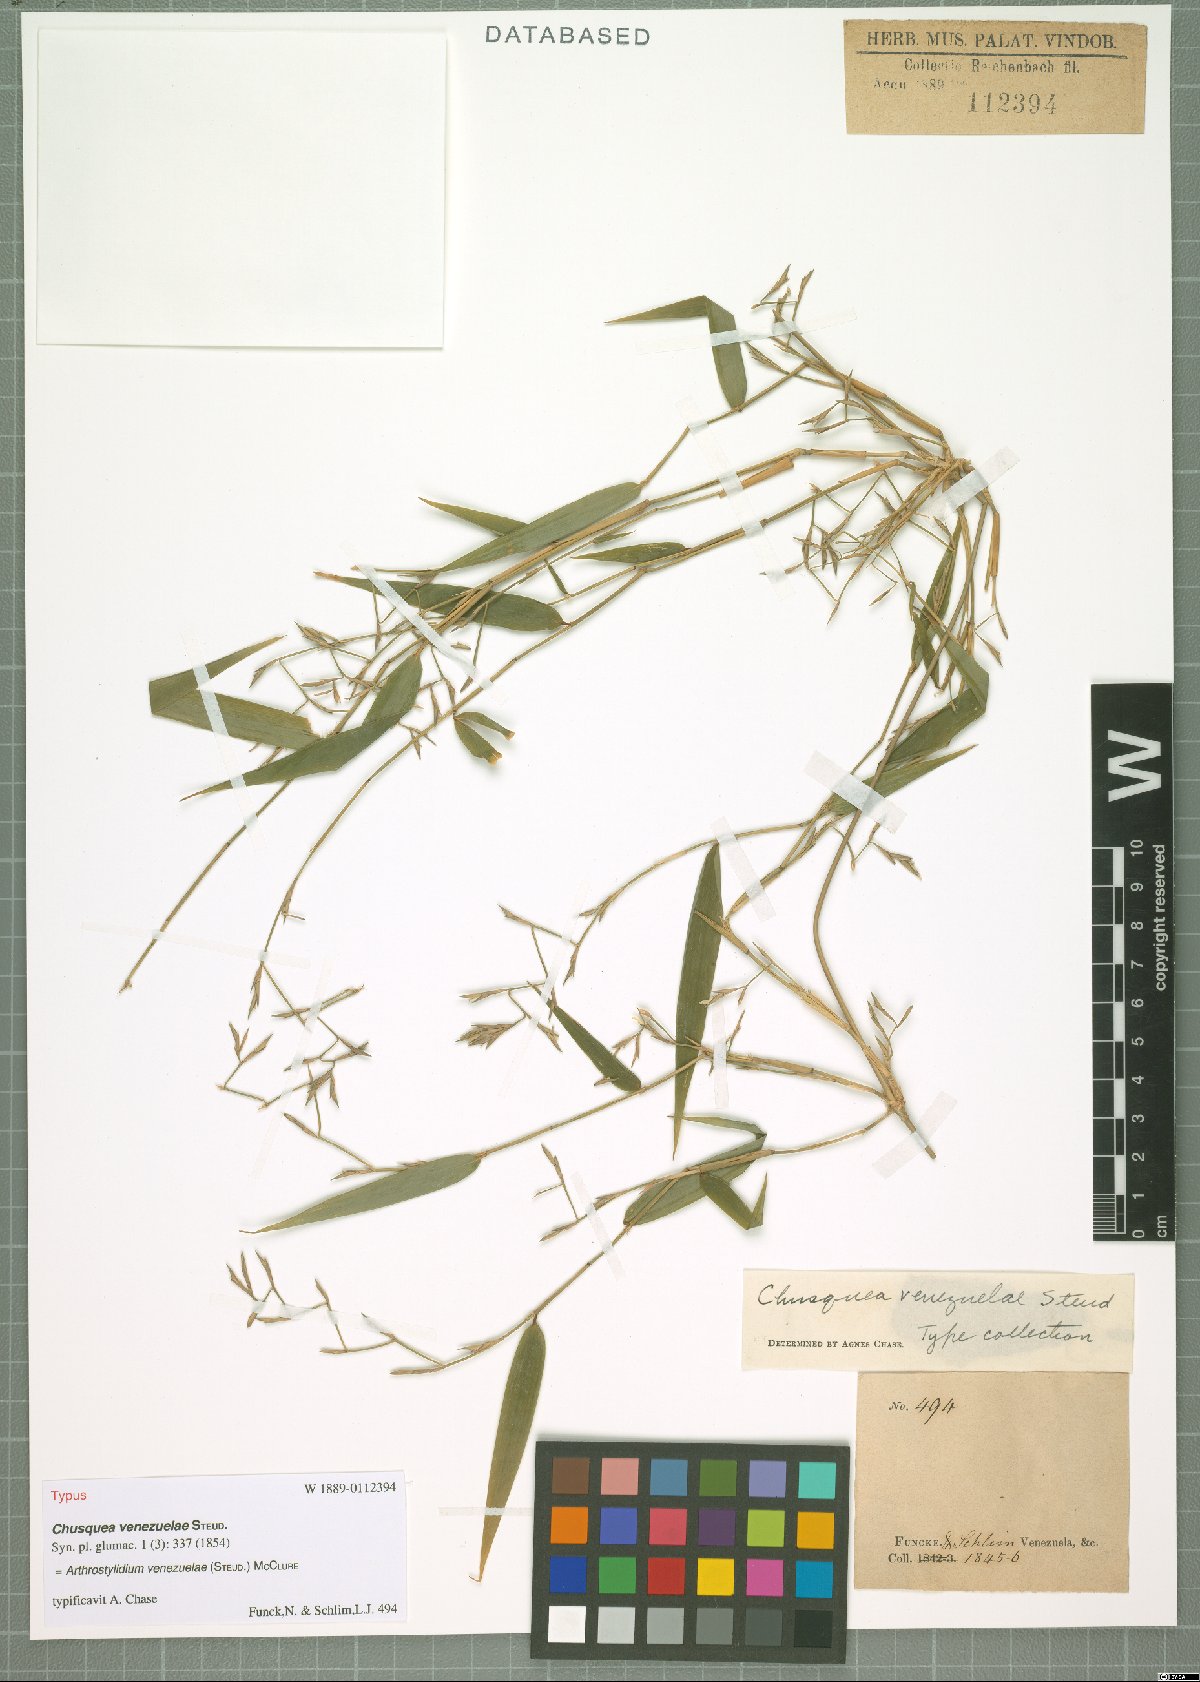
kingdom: Plantae
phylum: Tracheophyta
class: Liliopsida
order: Poales
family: Poaceae
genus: Arthrostylidium
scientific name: Arthrostylidium venezuelae
